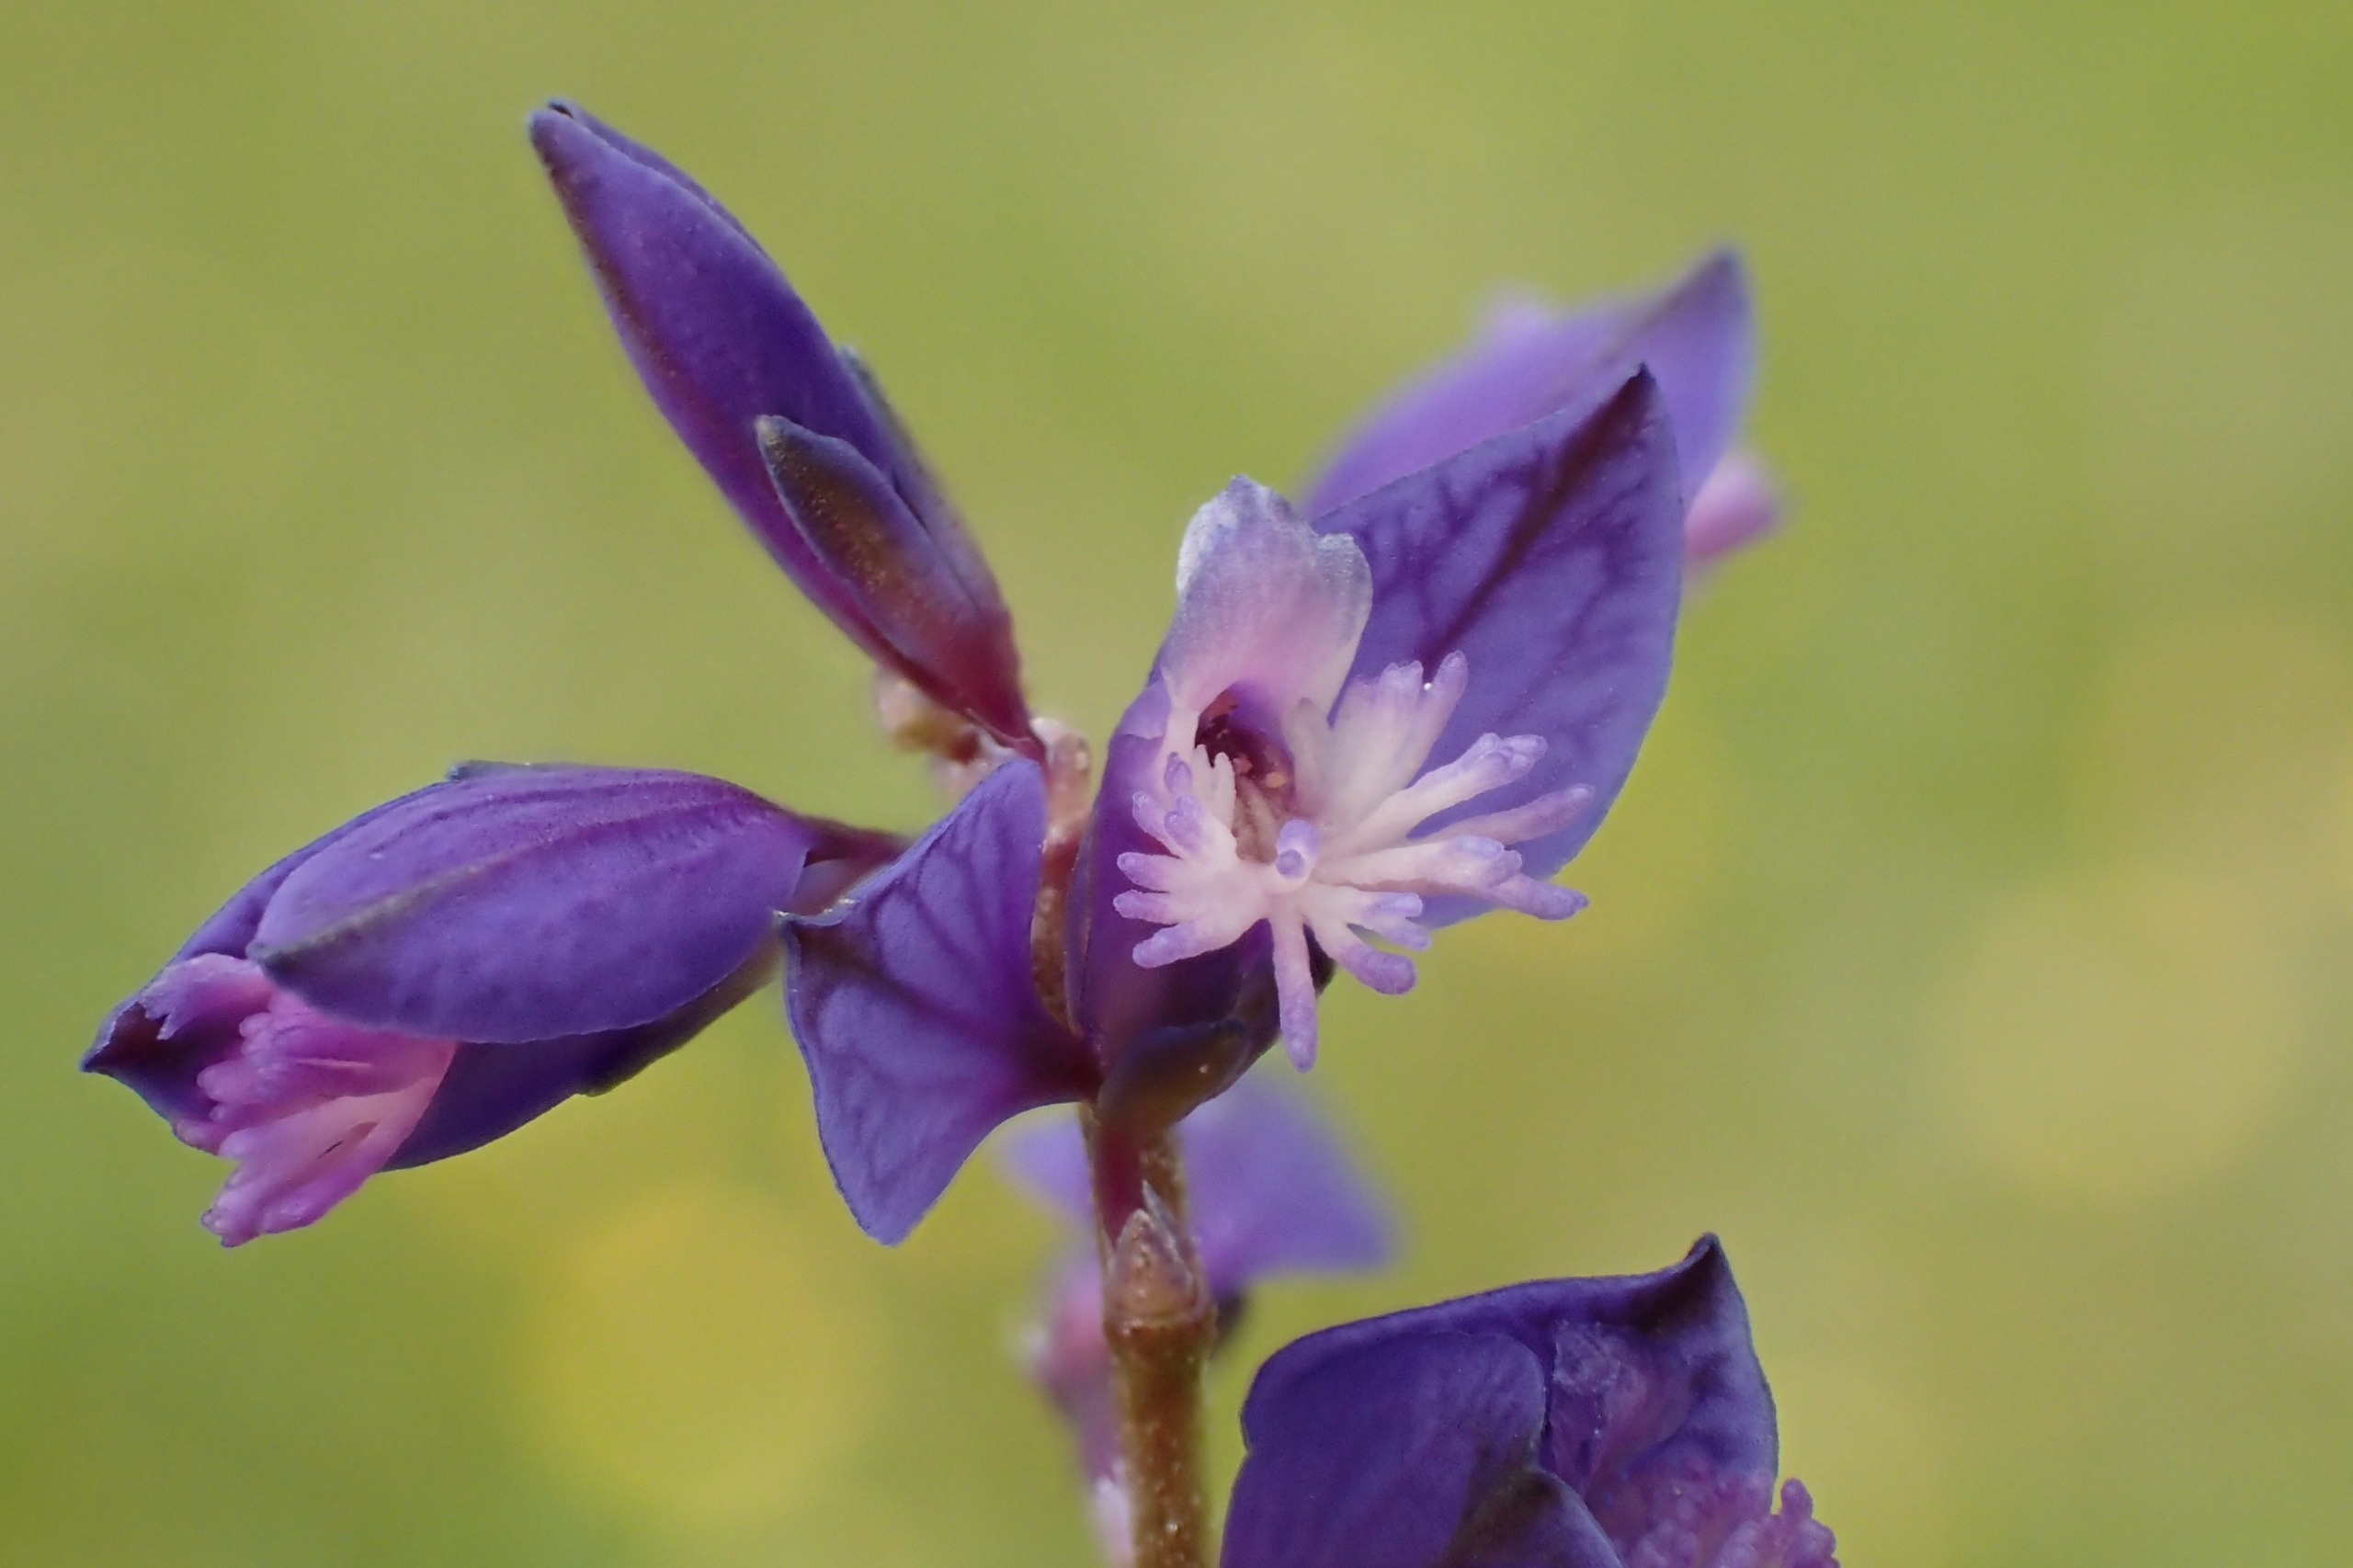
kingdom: Plantae
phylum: Tracheophyta
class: Magnoliopsida
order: Fabales
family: Polygalaceae
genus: Polygala
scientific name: Polygala serpyllifolia
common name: Spæd mælkeurt
